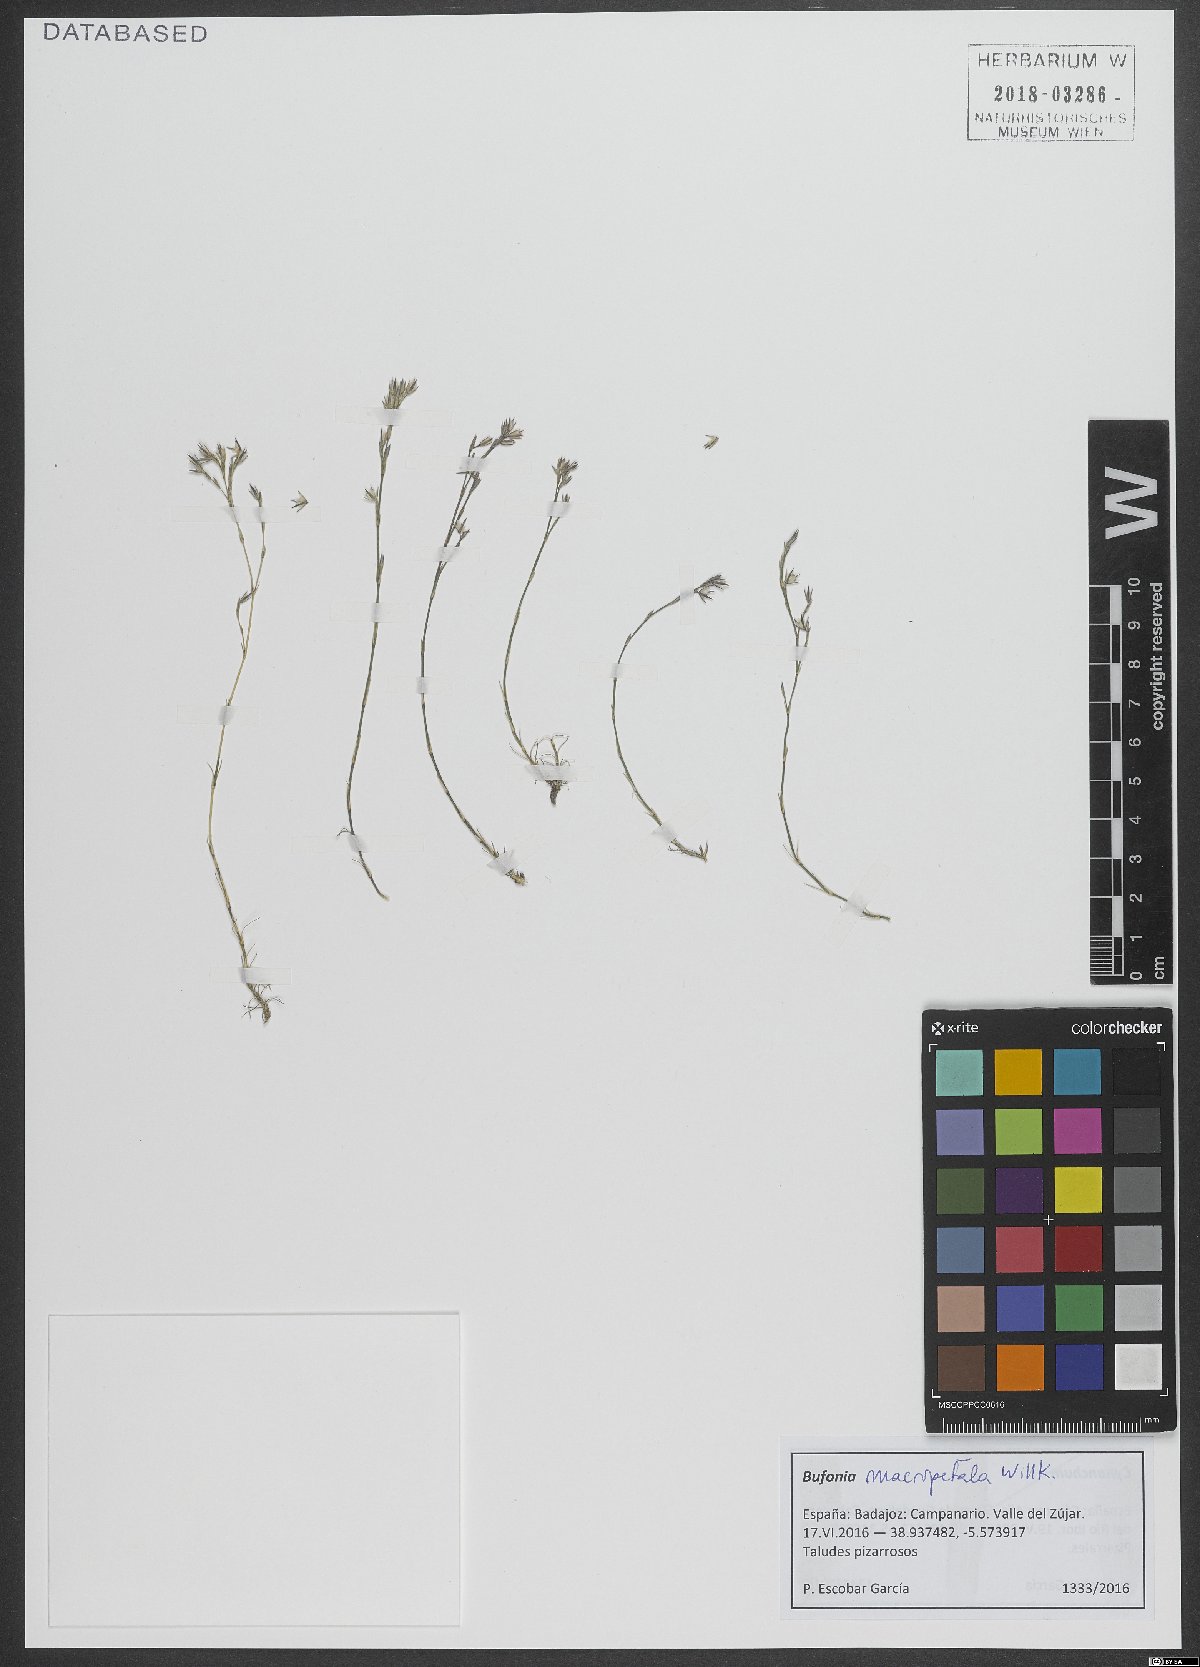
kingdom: Plantae
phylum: Tracheophyta
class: Magnoliopsida
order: Caryophyllales
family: Caryophyllaceae
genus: Bufonia
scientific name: Bufonia macropetala
